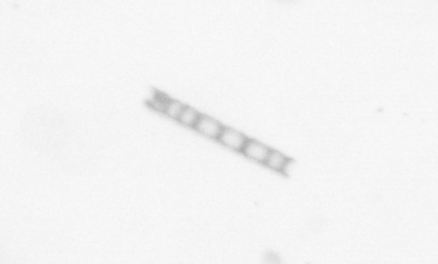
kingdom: Chromista
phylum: Ochrophyta
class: Bacillariophyceae
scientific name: Bacillariophyceae
